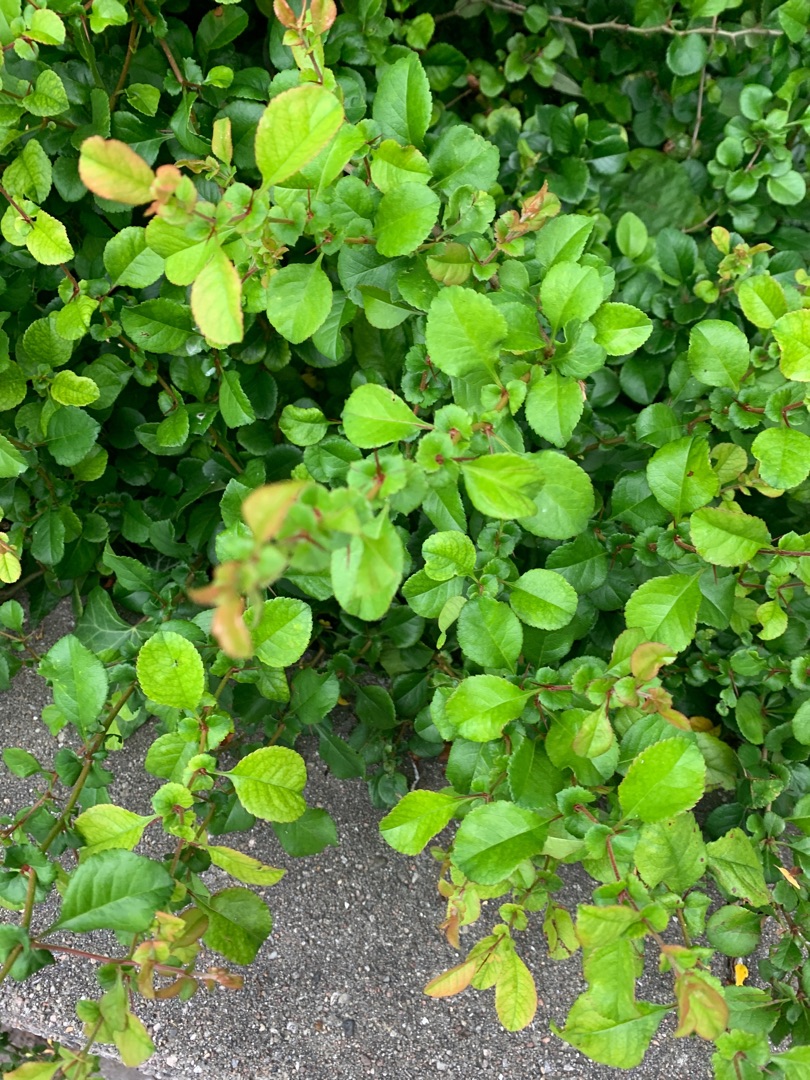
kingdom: Plantae
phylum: Tracheophyta
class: Magnoliopsida
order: Rosales
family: Rosaceae
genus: Chaenomeles
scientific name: Chaenomeles japonica
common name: Lille japankvæde
